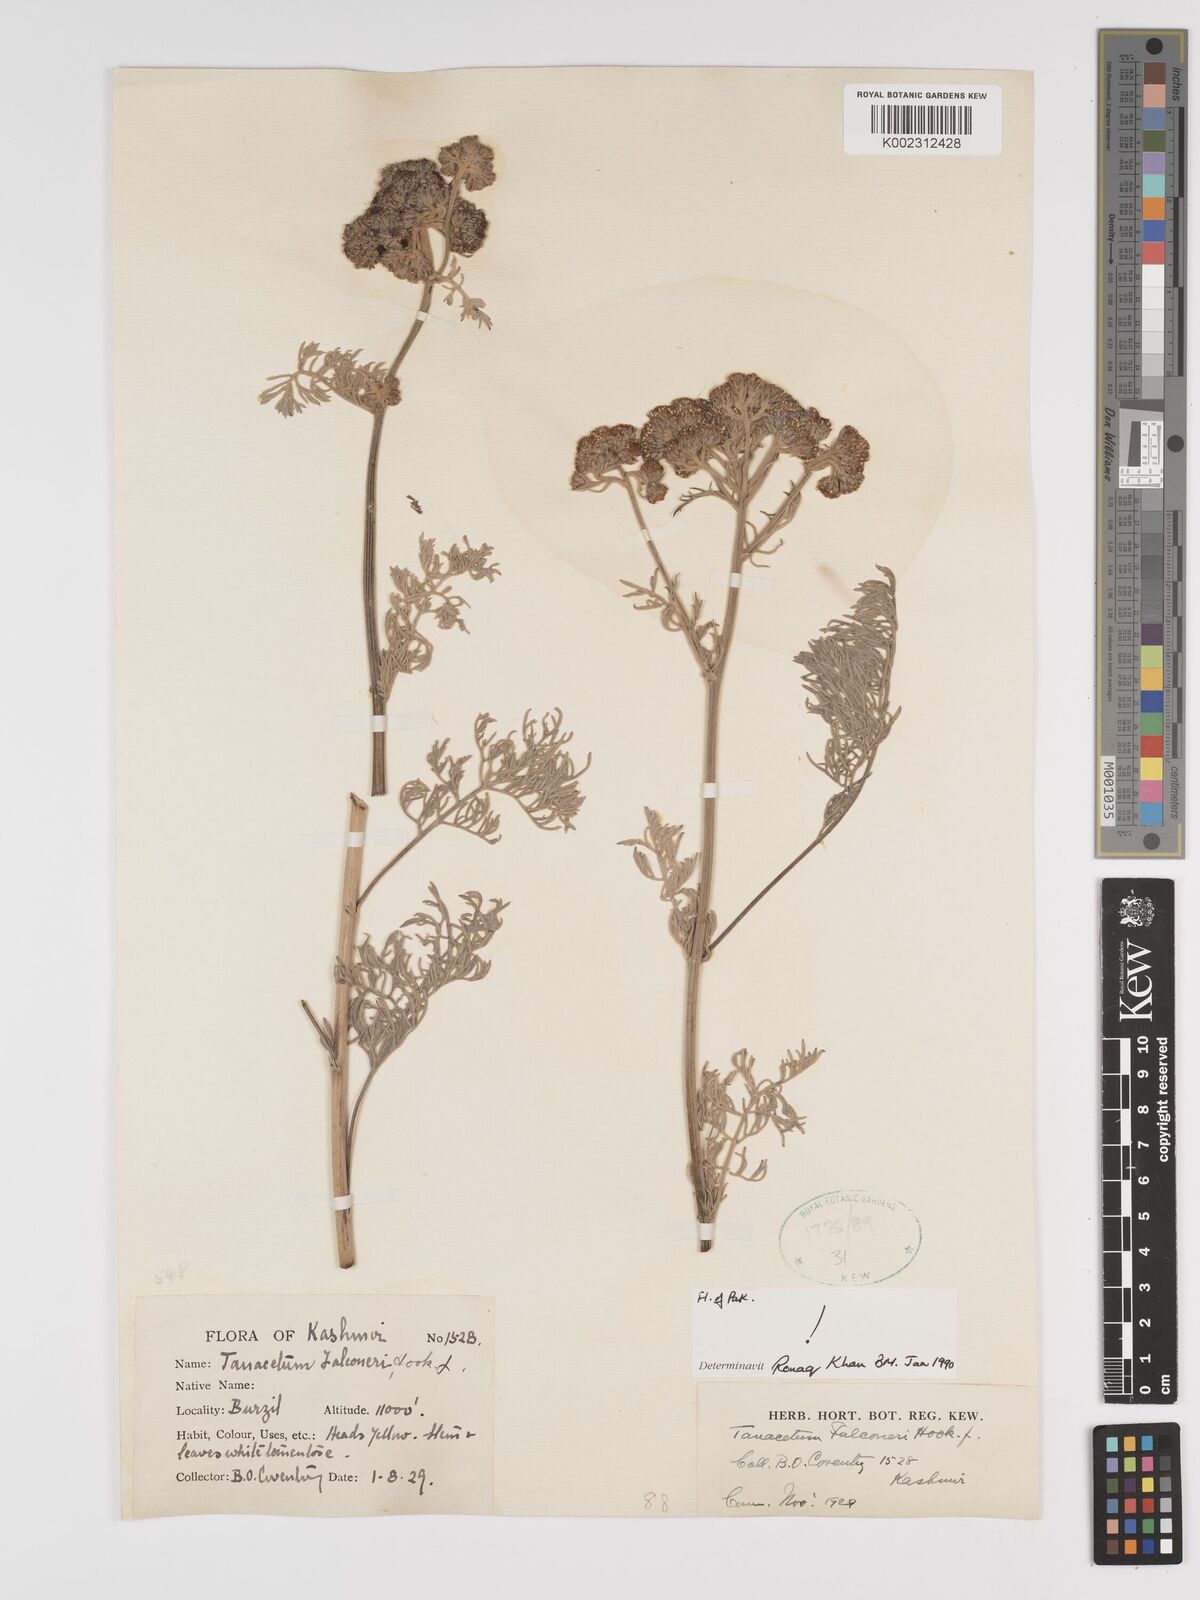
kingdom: Plantae
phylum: Tracheophyta
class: Magnoliopsida
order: Asterales
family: Asteraceae
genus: Tanacetum
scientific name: Tanacetum falconeri
